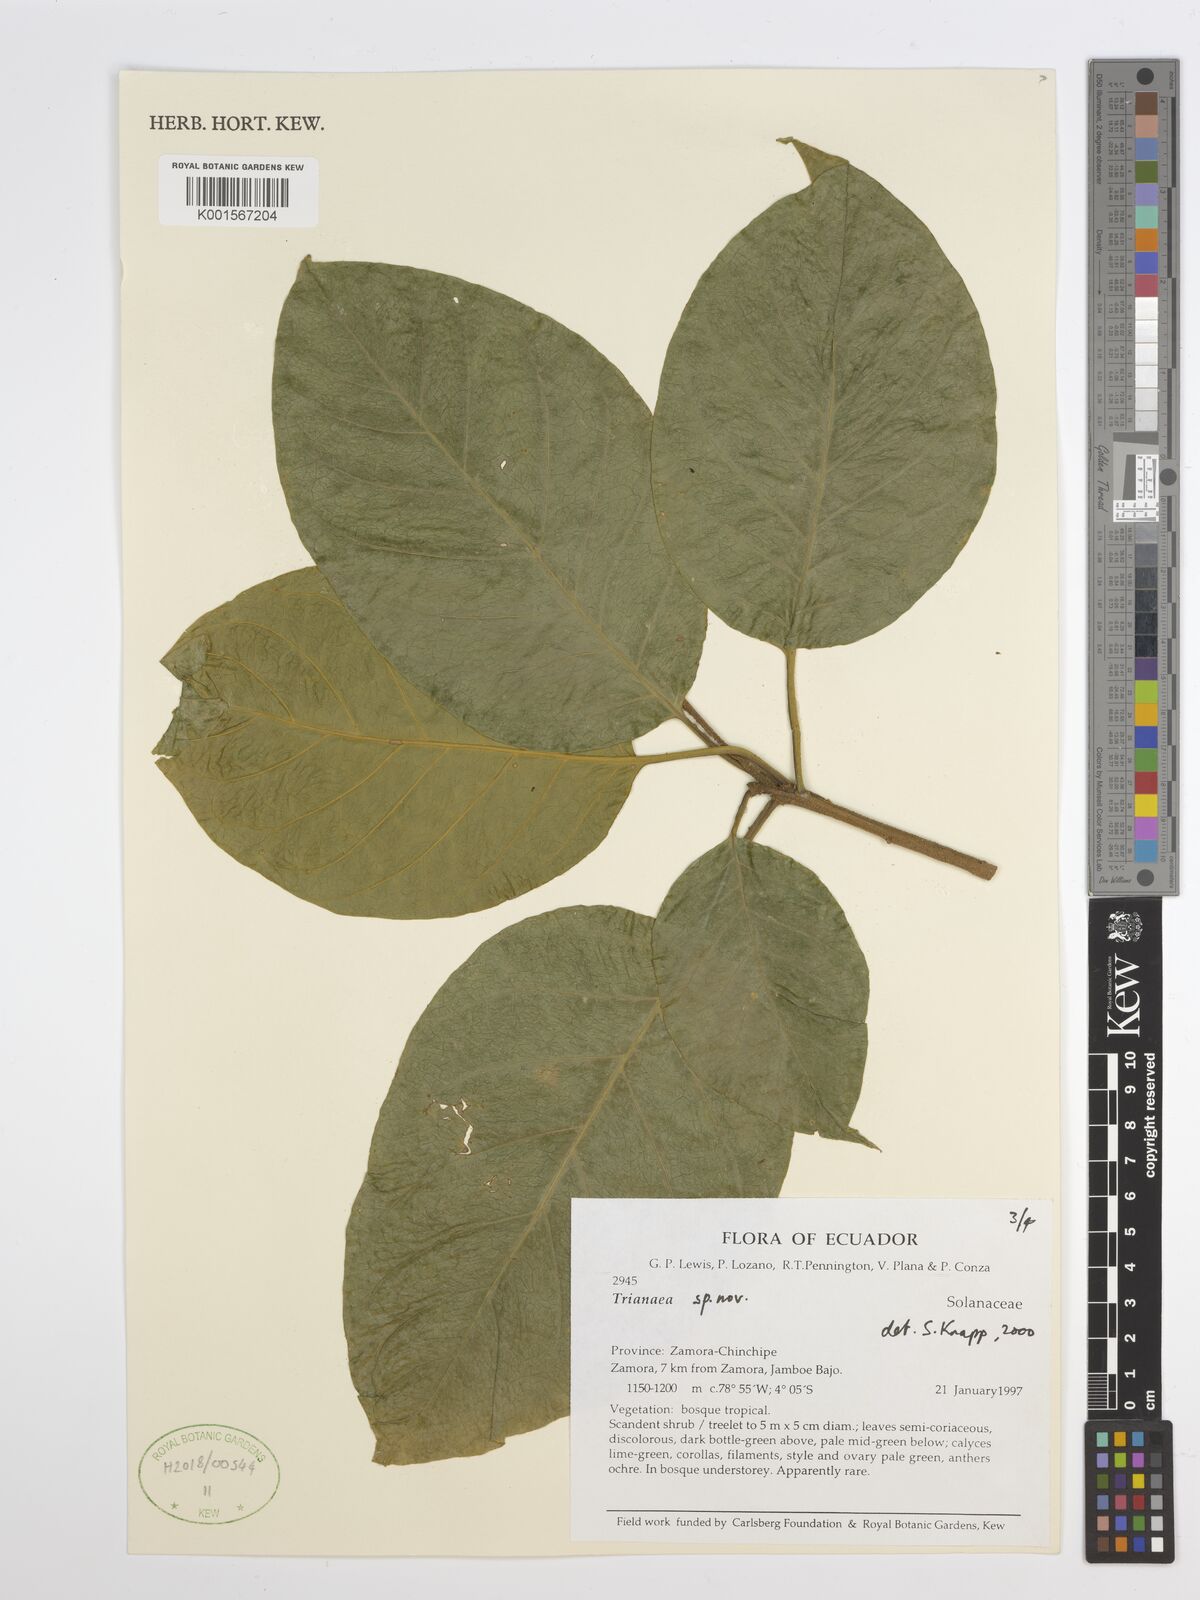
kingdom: Plantae
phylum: Tracheophyta
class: Magnoliopsida
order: Solanales
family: Solanaceae
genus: Trianaea
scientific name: Trianaea
